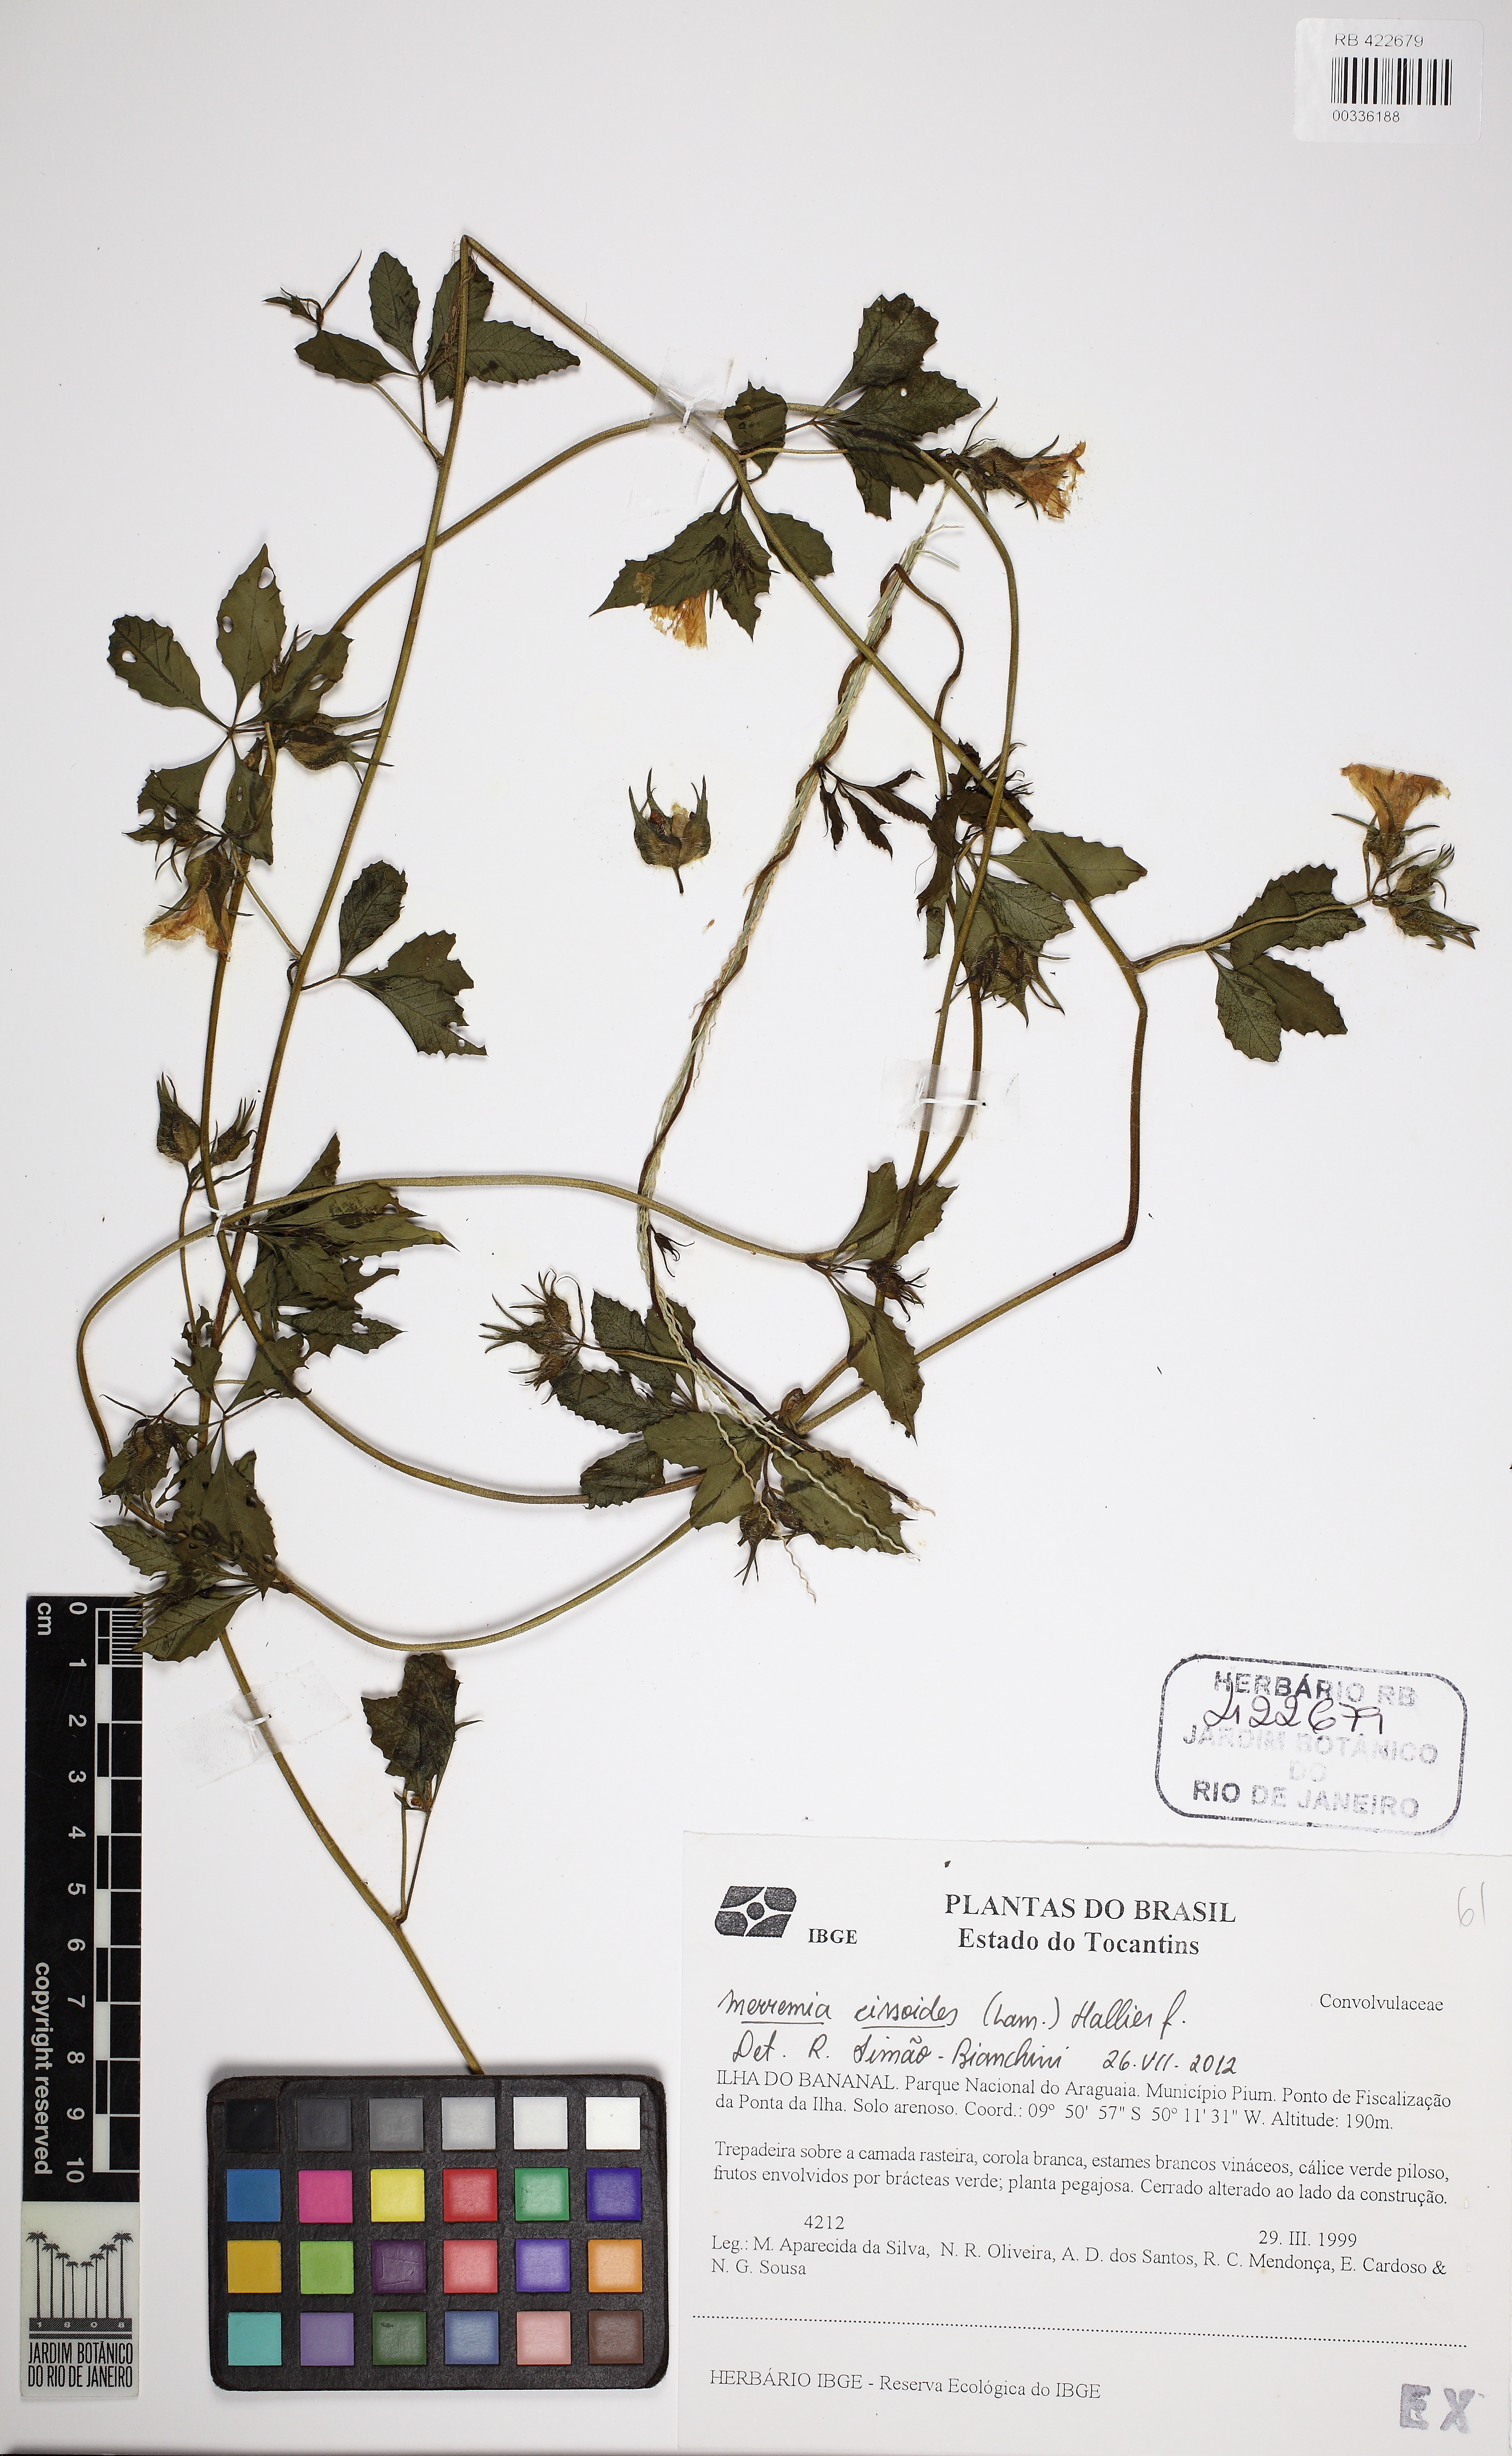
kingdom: Plantae
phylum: Tracheophyta
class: Magnoliopsida
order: Solanales
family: Convolvulaceae
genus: Distimake
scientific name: Distimake cissoides
